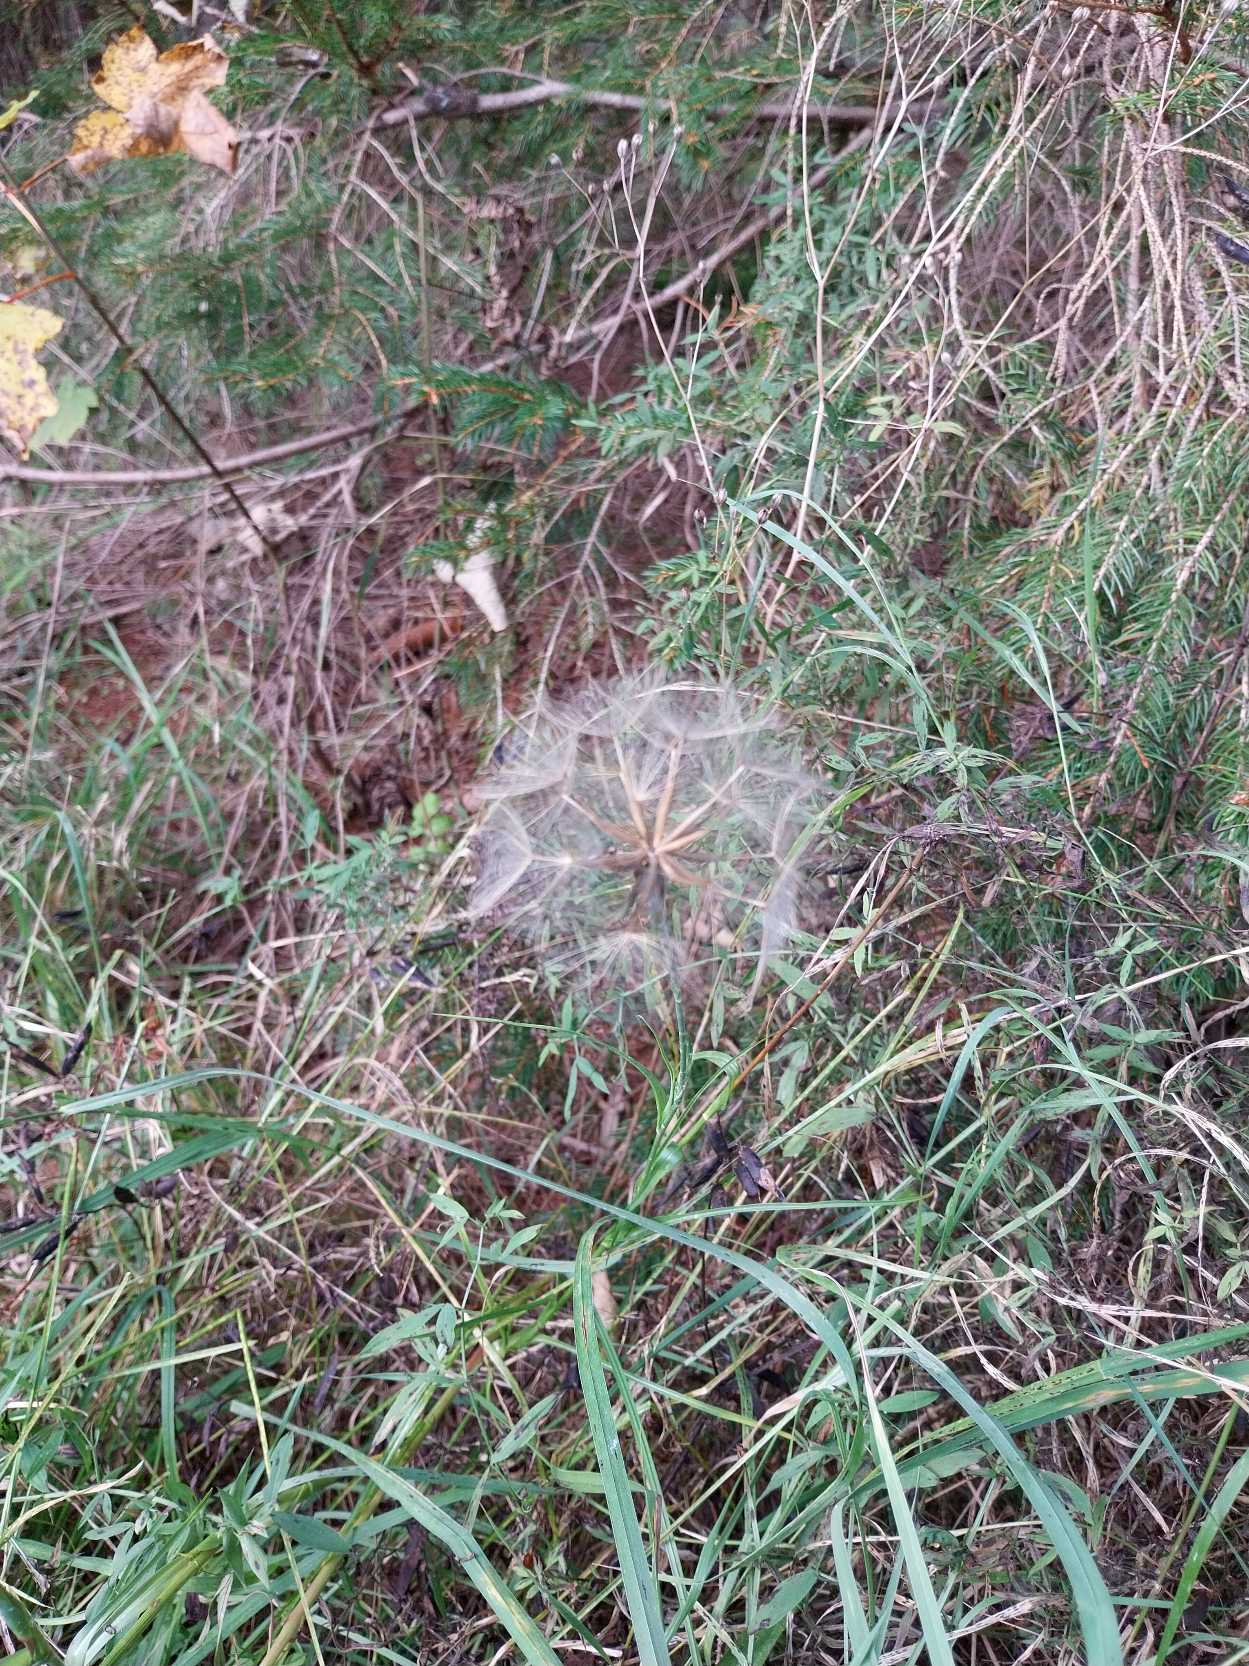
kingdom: Plantae
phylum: Tracheophyta
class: Magnoliopsida
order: Asterales
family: Asteraceae
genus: Tragopogon
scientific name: Tragopogon pratensis
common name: Gedeskæg
